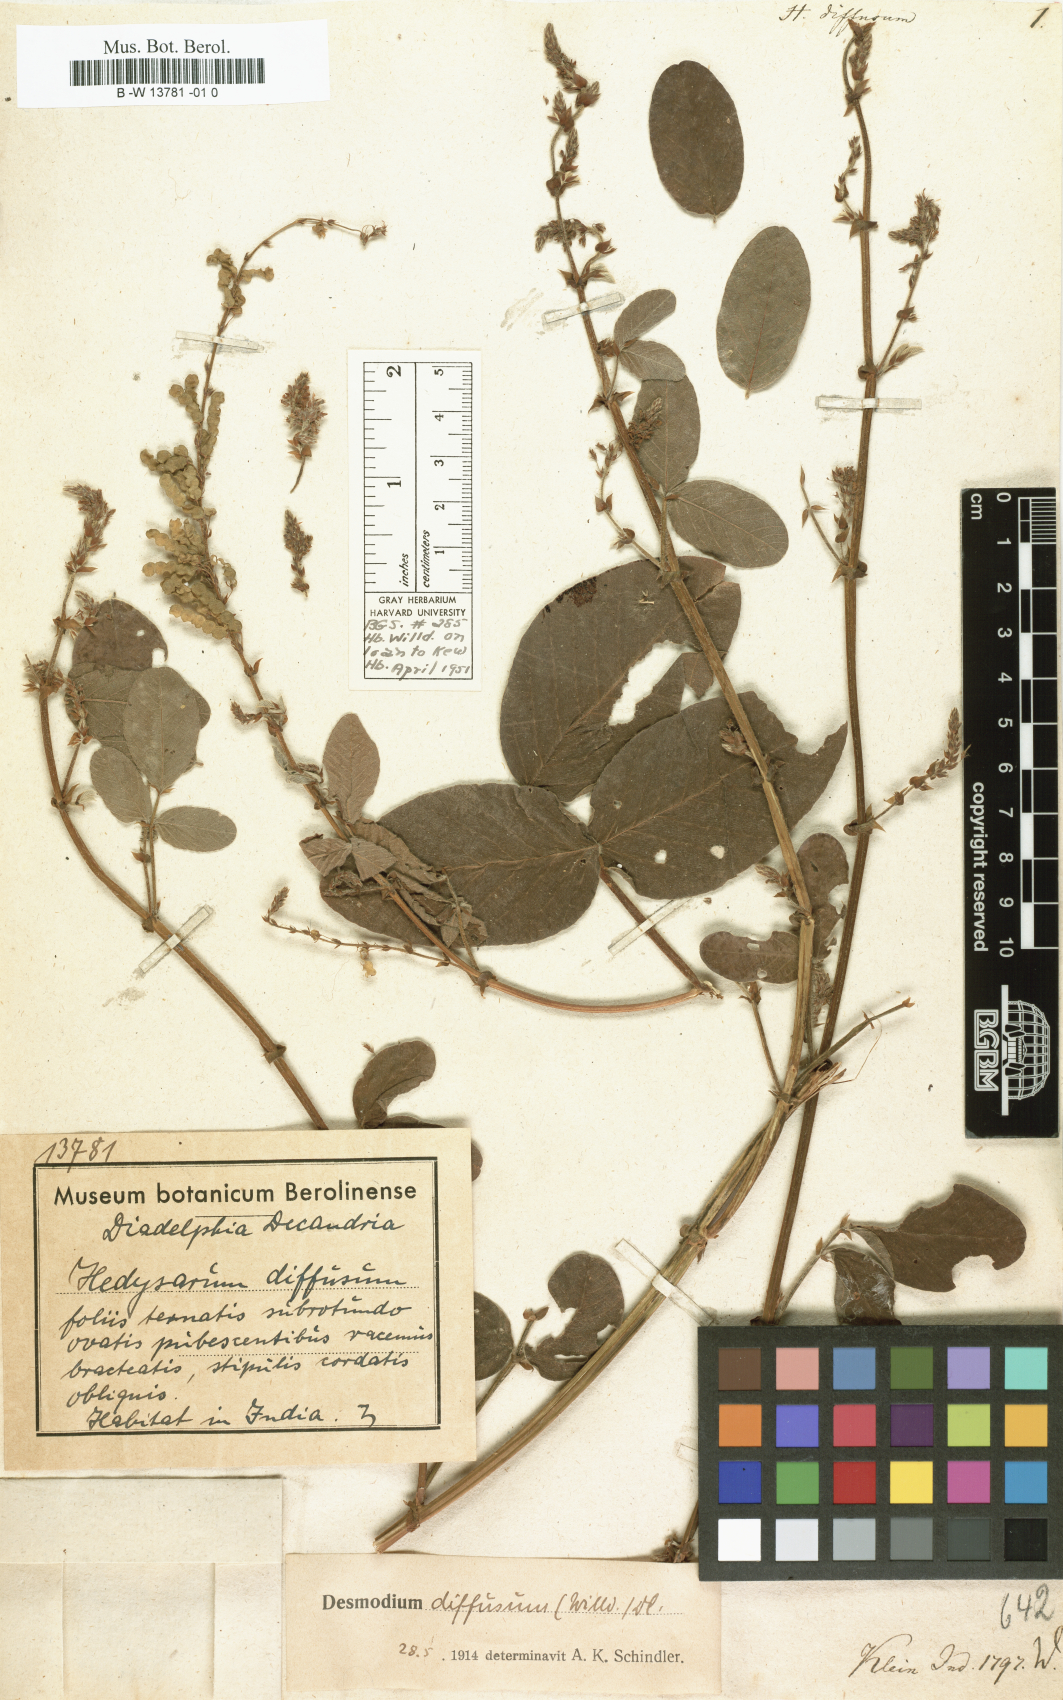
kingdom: Plantae
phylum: Tracheophyta
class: Magnoliopsida
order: Fabales
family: Fabaceae
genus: Hylodesmum
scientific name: Hylodesmum laxum
